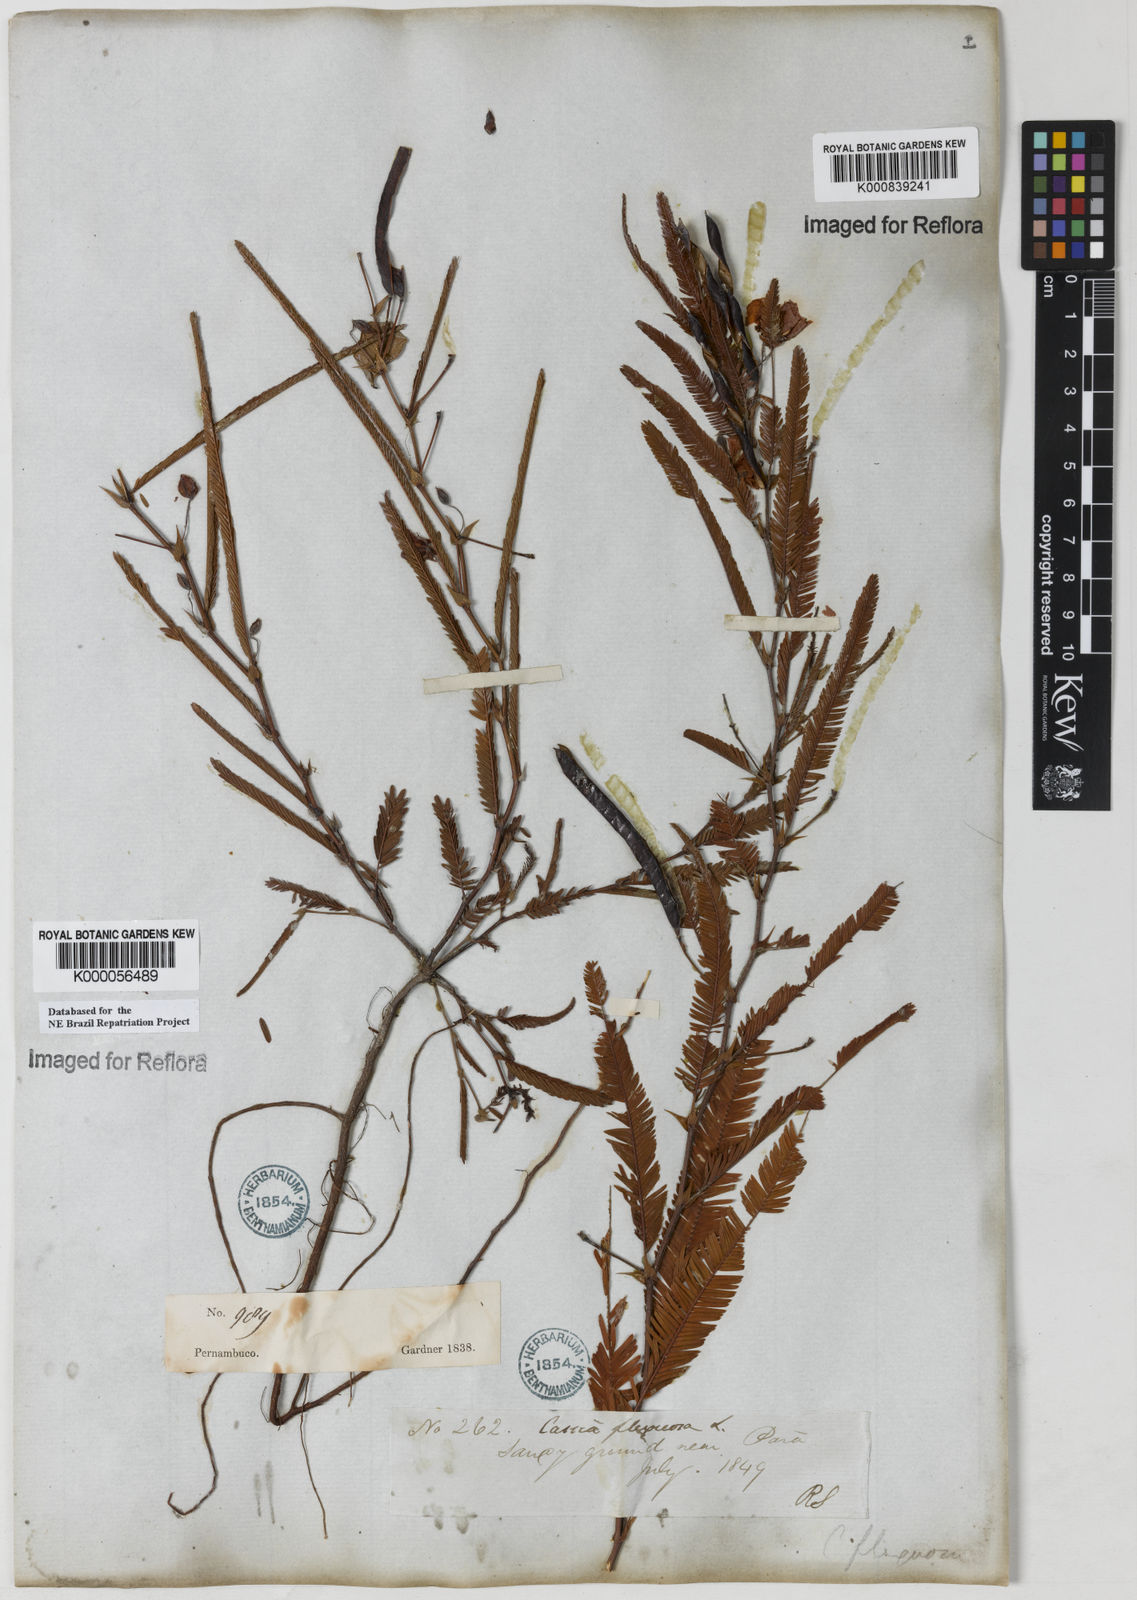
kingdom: Plantae
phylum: Tracheophyta
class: Magnoliopsida
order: Fabales
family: Fabaceae
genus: Chamaecrista
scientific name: Chamaecrista flexuosa
